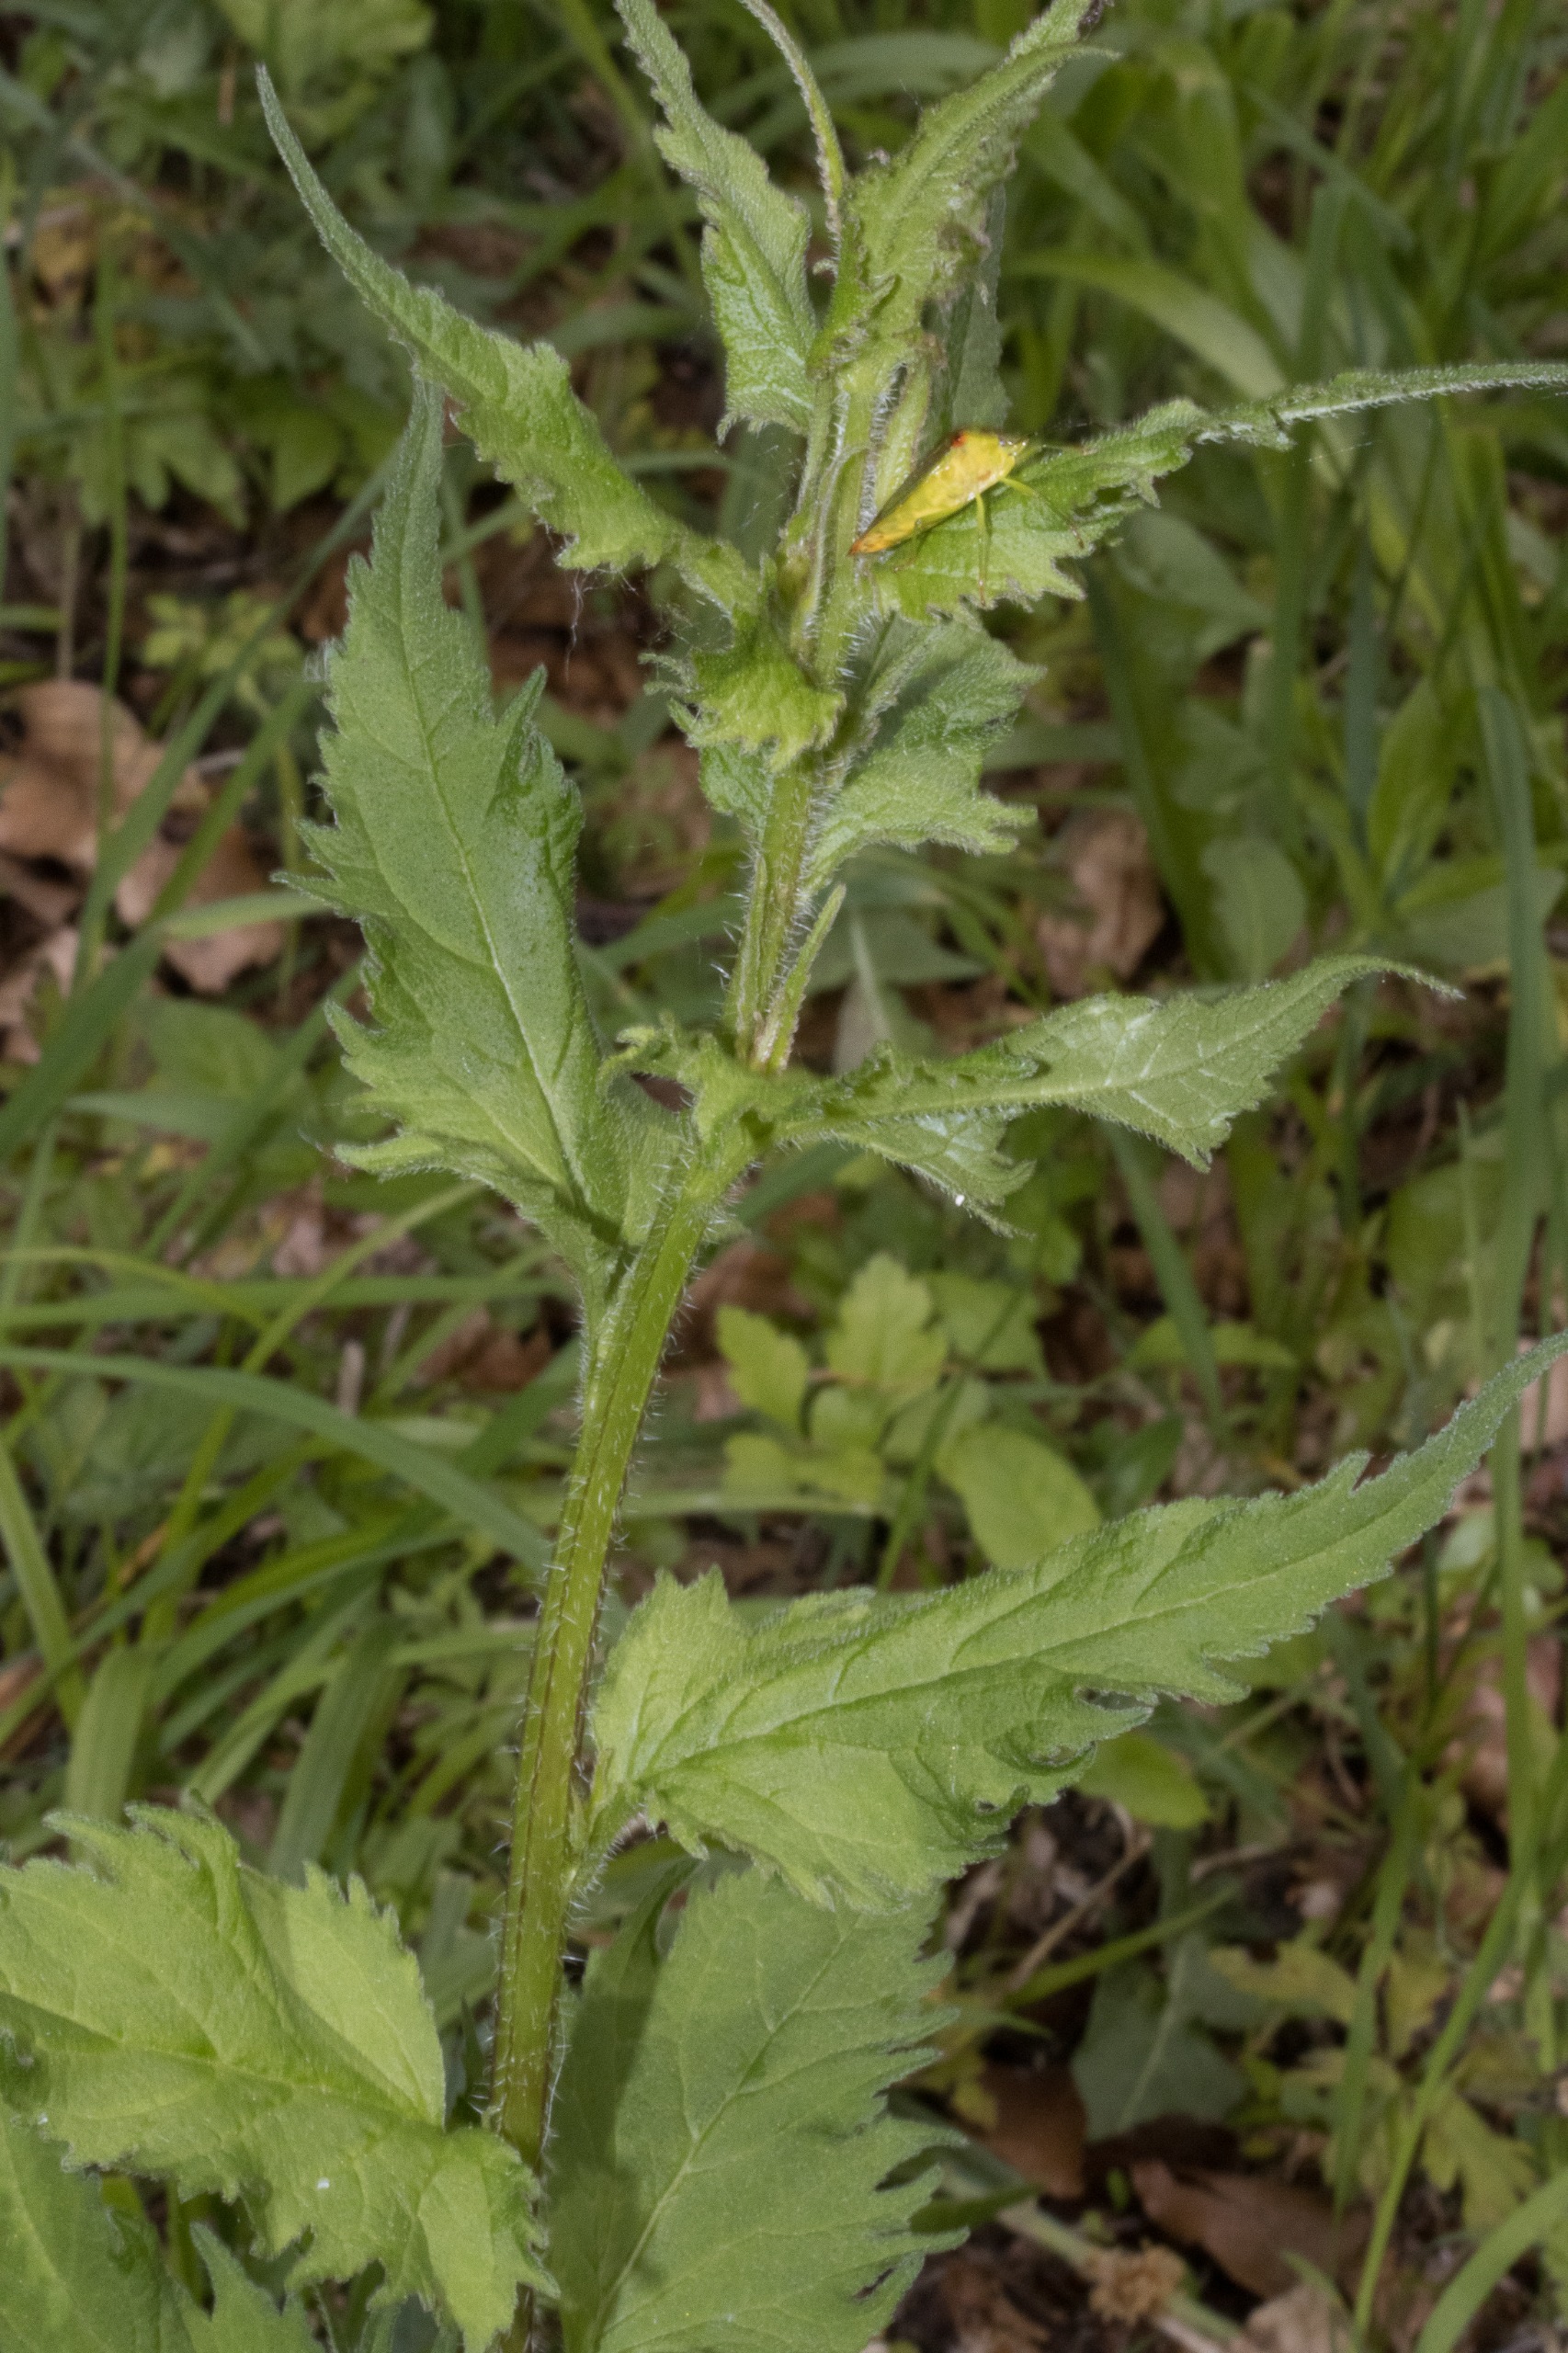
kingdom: Plantae
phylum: Tracheophyta
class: Magnoliopsida
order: Asterales
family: Campanulaceae
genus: Campanula
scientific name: Campanula trachelium
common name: Nælde-klokke
